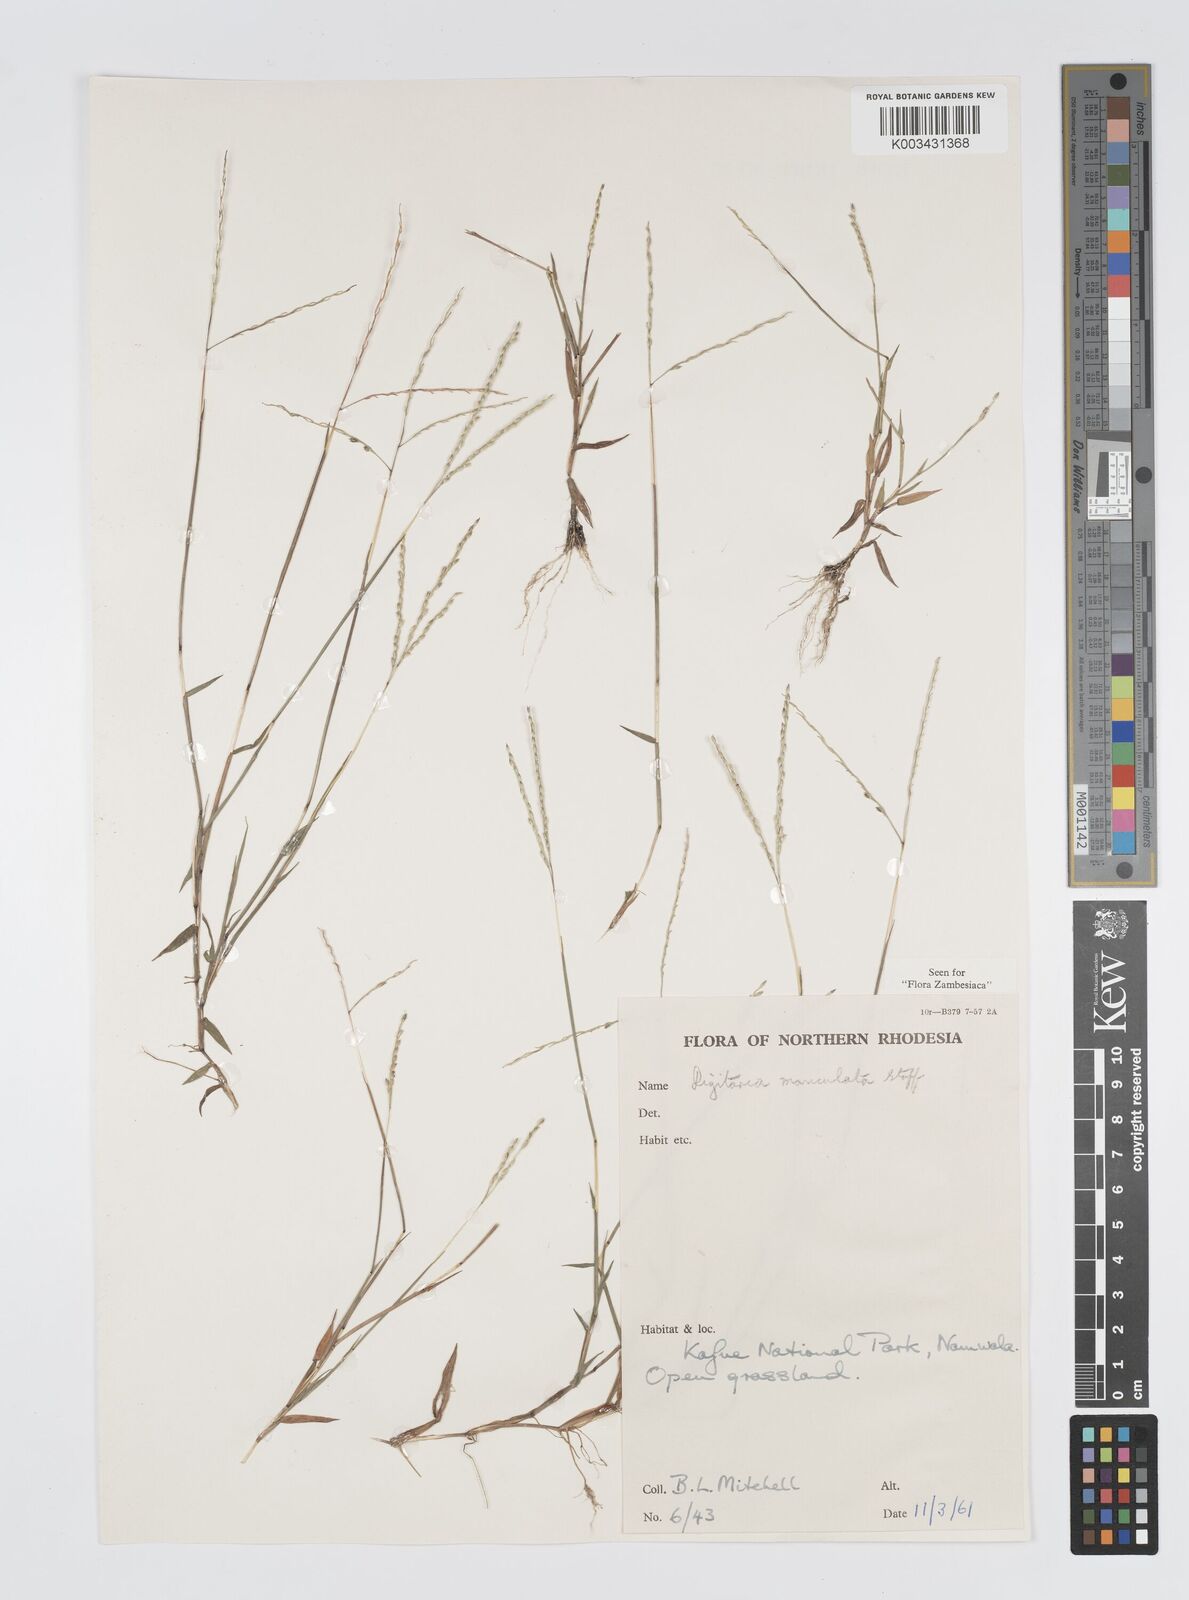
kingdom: Plantae
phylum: Tracheophyta
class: Liliopsida
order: Poales
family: Poaceae
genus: Digitaria
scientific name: Digitaria maniculata
